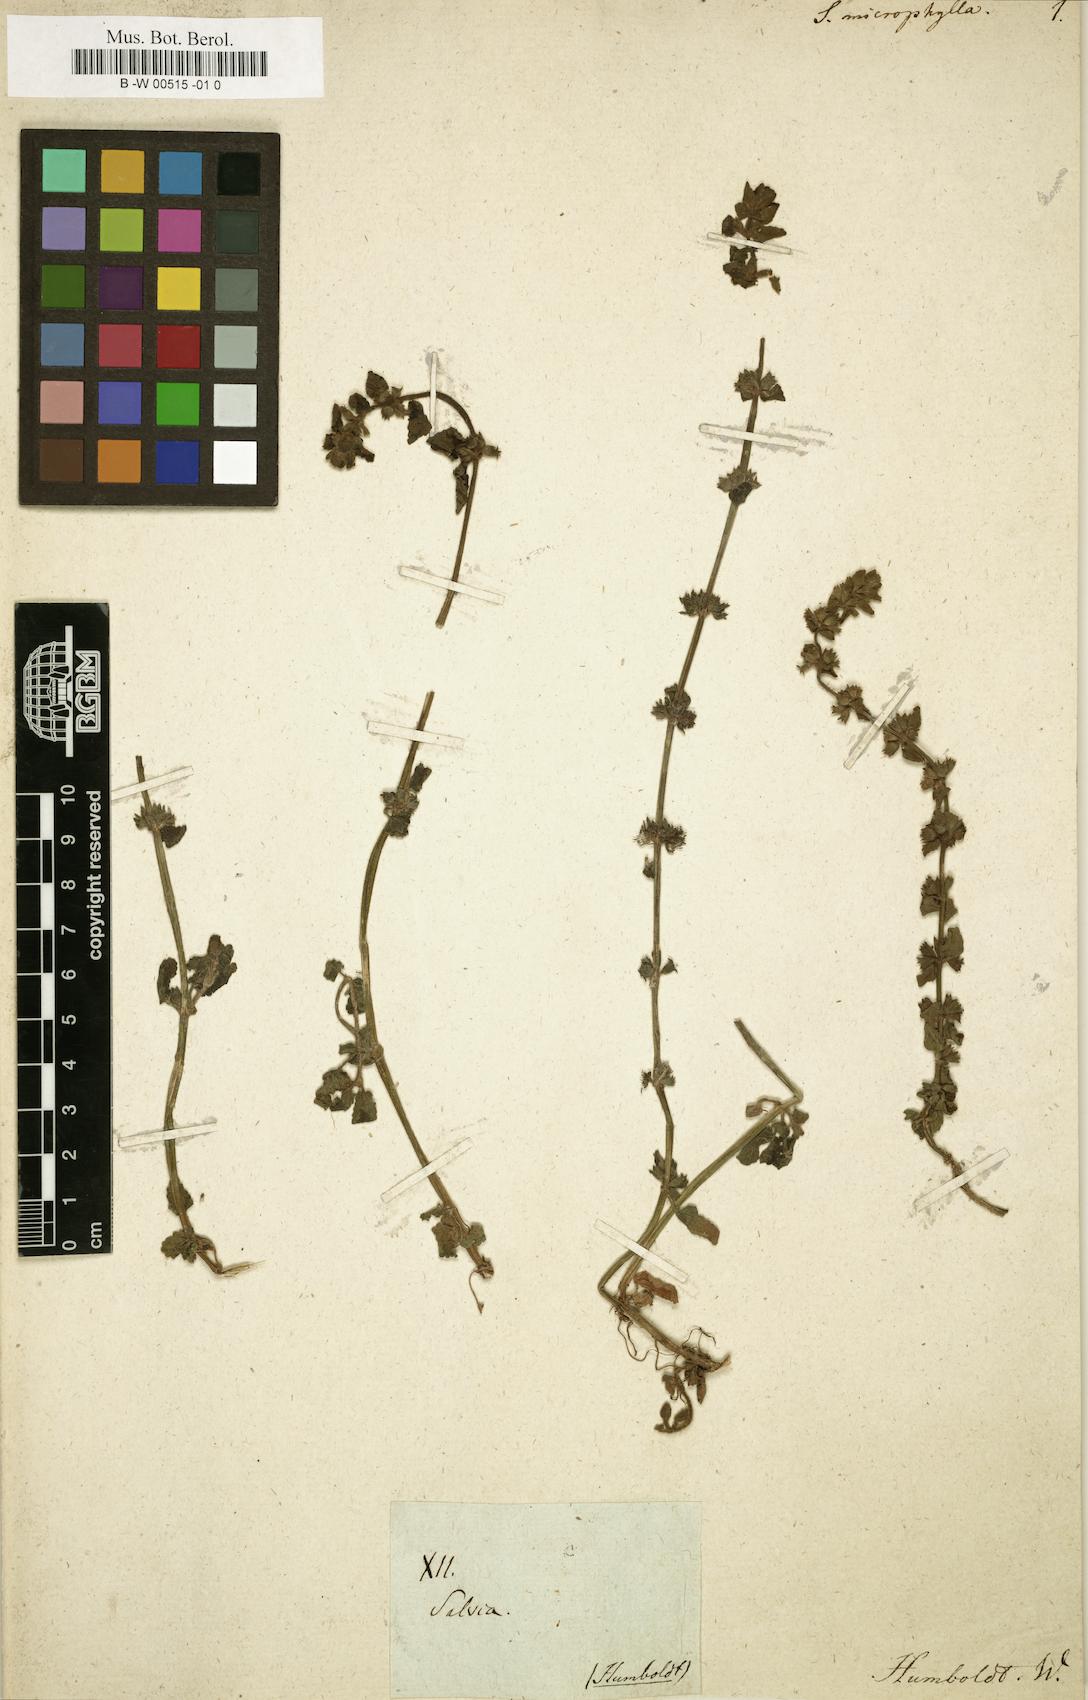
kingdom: Plantae
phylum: Tracheophyta
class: Magnoliopsida
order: Lamiales
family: Lamiaceae
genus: Salvia
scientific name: Salvia microphylla
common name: Baby sage
